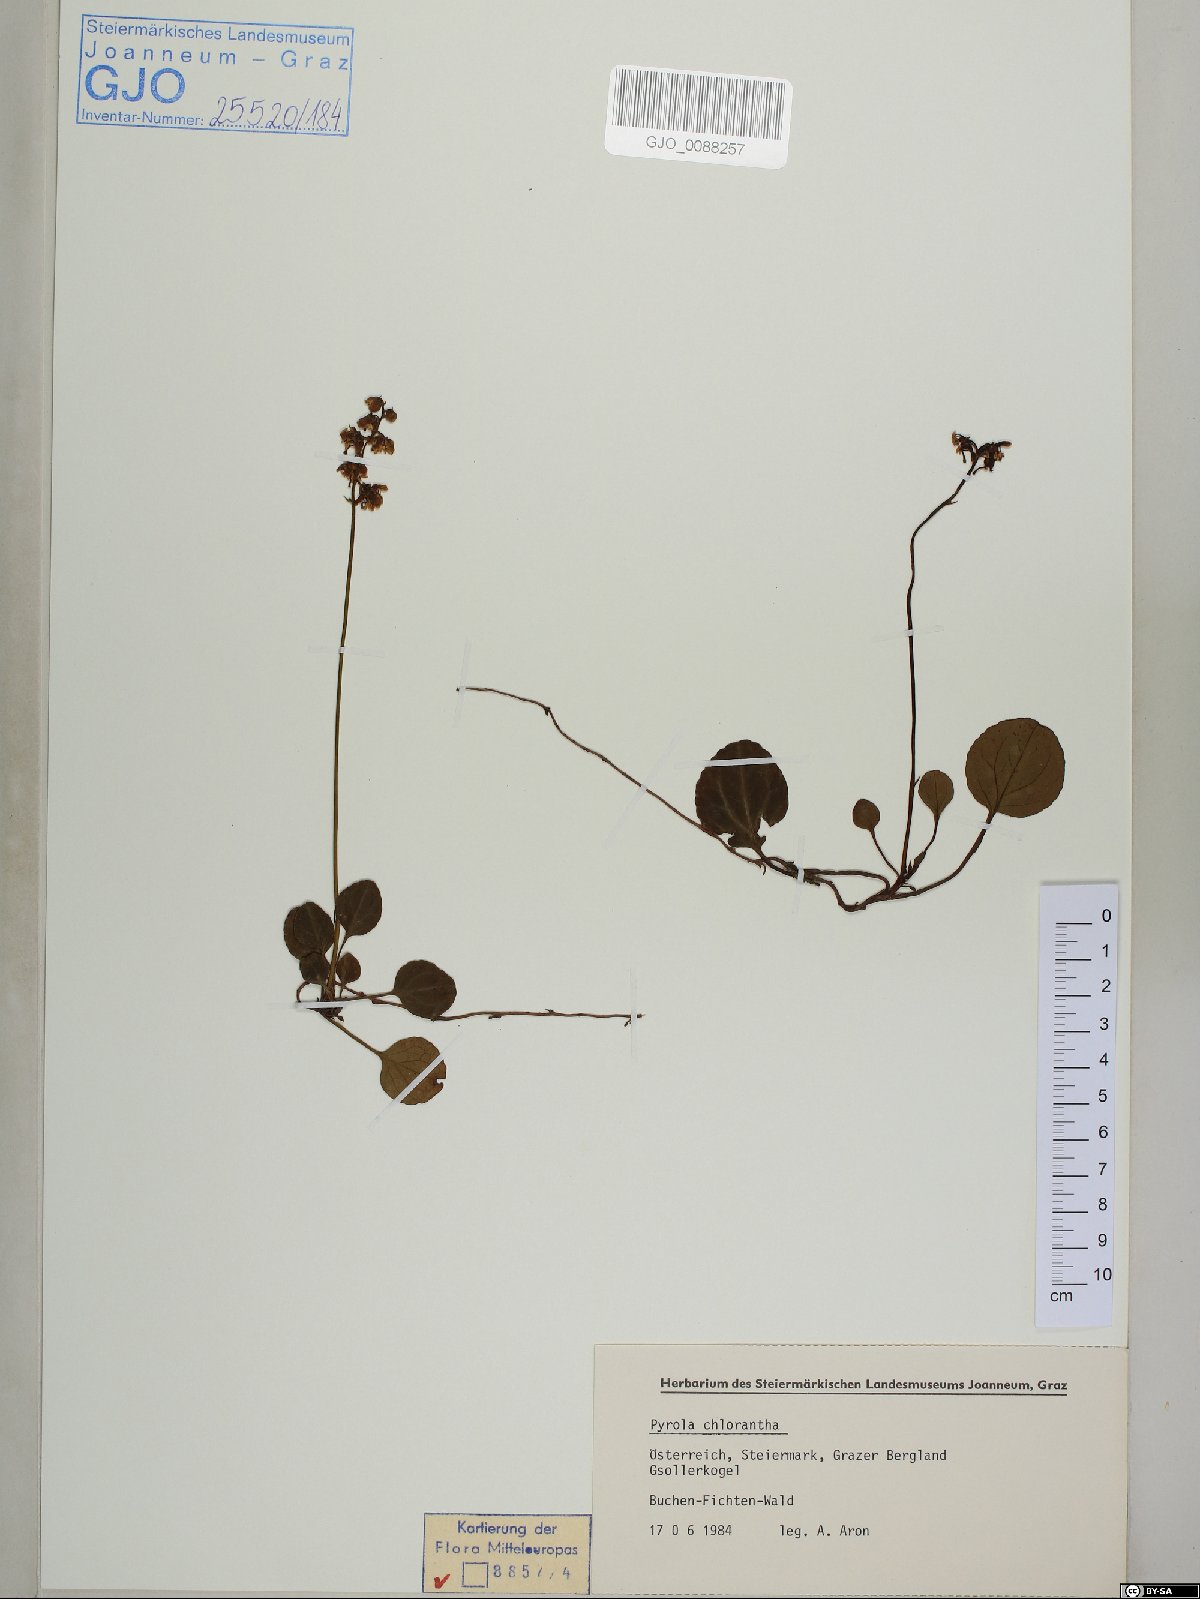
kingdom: Plantae
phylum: Tracheophyta
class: Magnoliopsida
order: Ericales
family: Ericaceae
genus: Pyrola
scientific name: Pyrola chlorantha
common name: Green wintergreen
